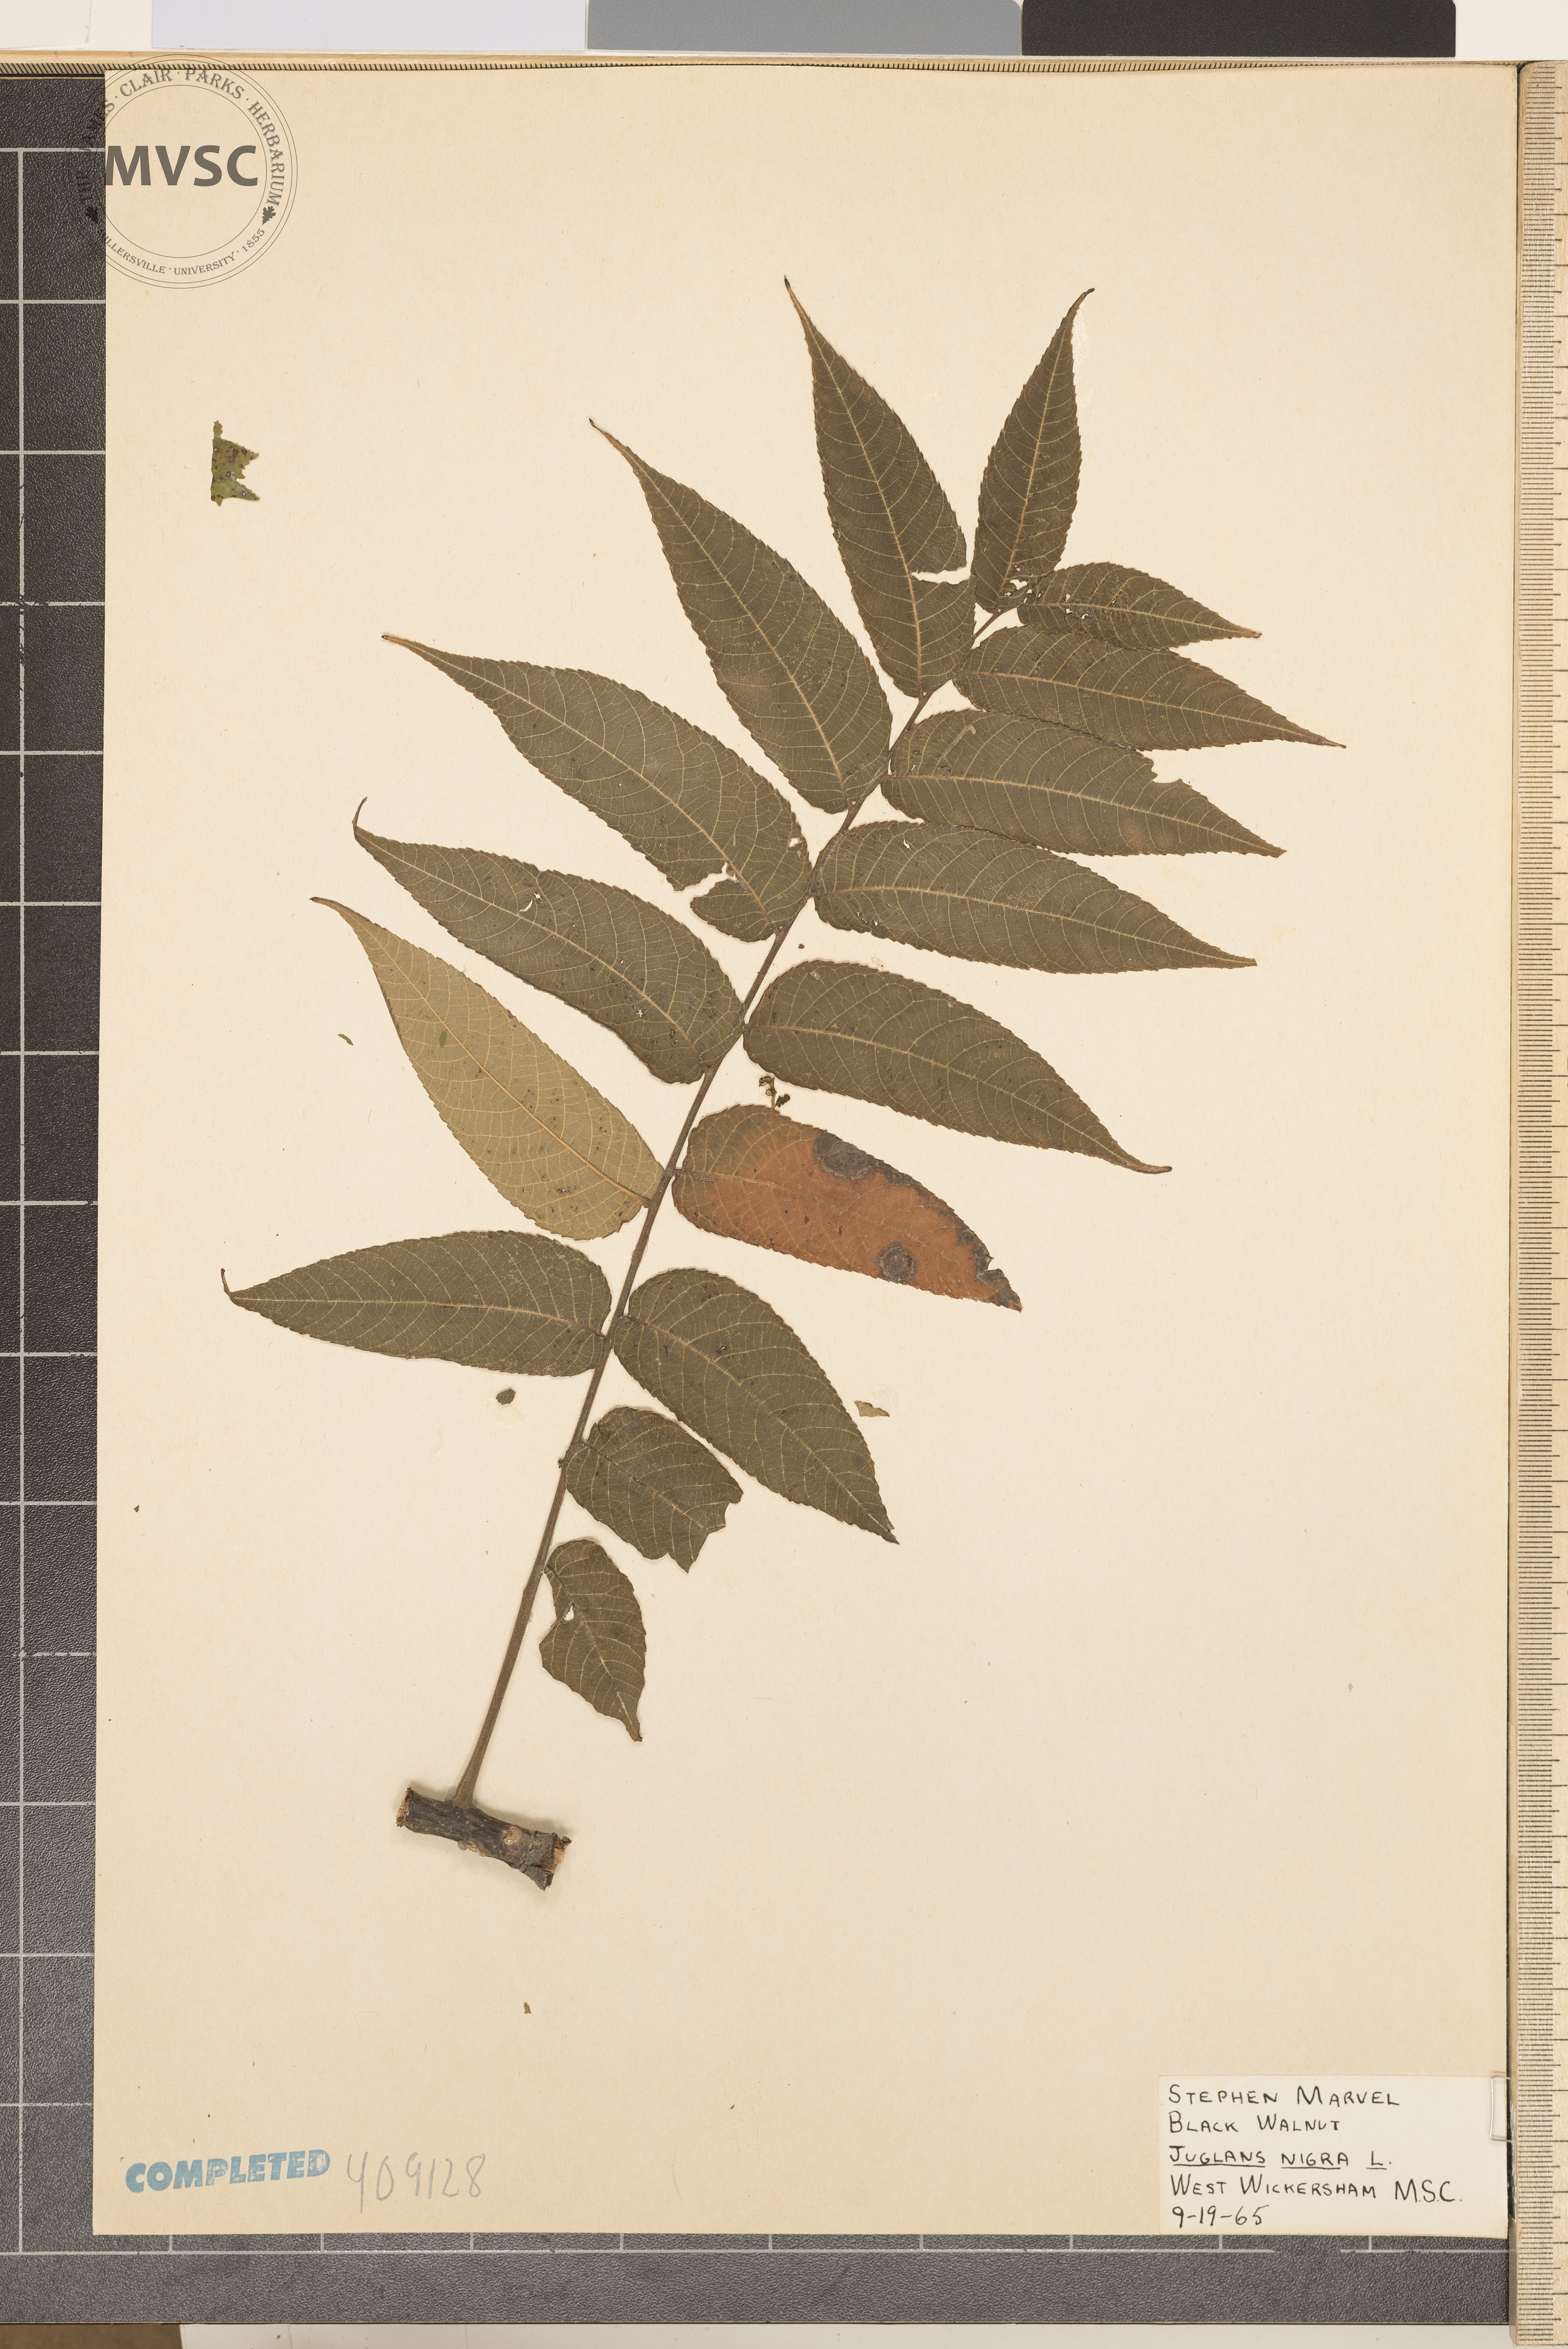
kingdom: Plantae
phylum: Tracheophyta
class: Magnoliopsida
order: Fagales
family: Juglandaceae
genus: Juglans
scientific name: Juglans nigra
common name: Black walnut
